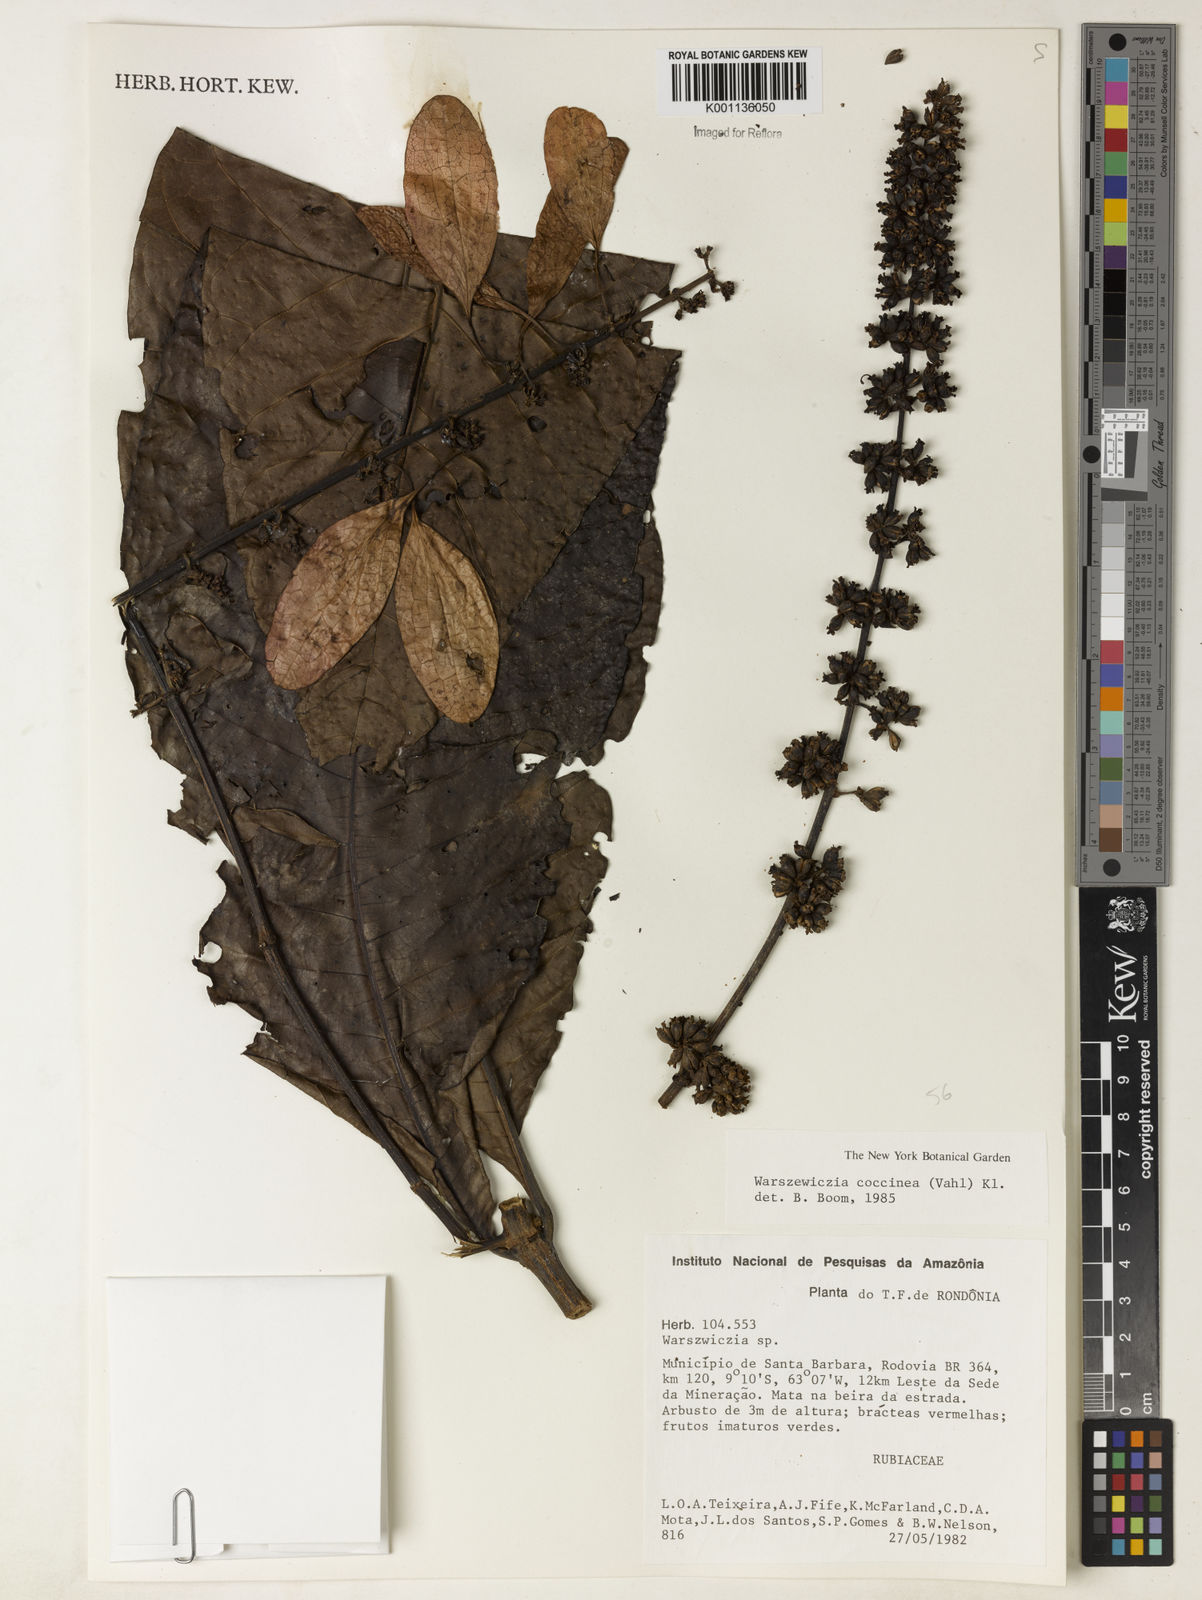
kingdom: Plantae
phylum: Tracheophyta
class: Magnoliopsida
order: Gentianales
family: Rubiaceae
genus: Warszewiczia
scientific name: Warszewiczia coccinea
